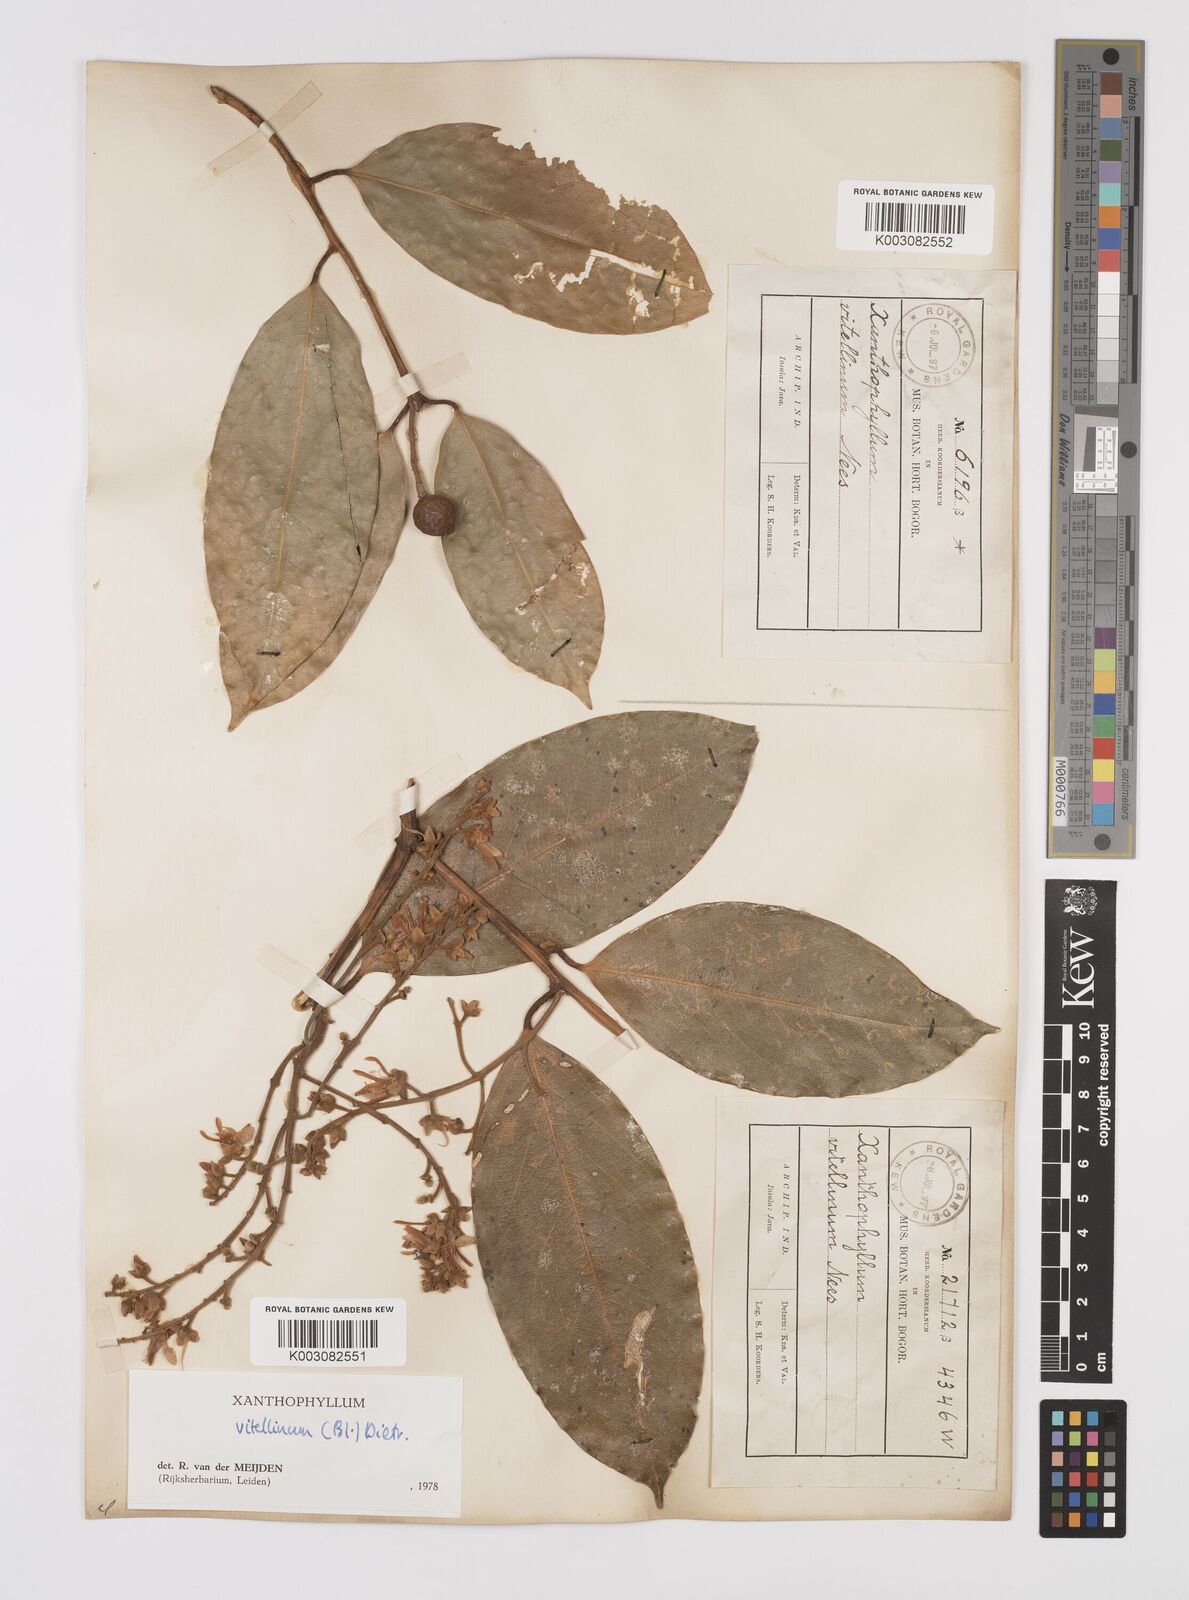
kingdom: Plantae
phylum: Tracheophyta
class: Magnoliopsida
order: Fabales
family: Polygalaceae
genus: Xanthophyllum
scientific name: Xanthophyllum vitellinum
